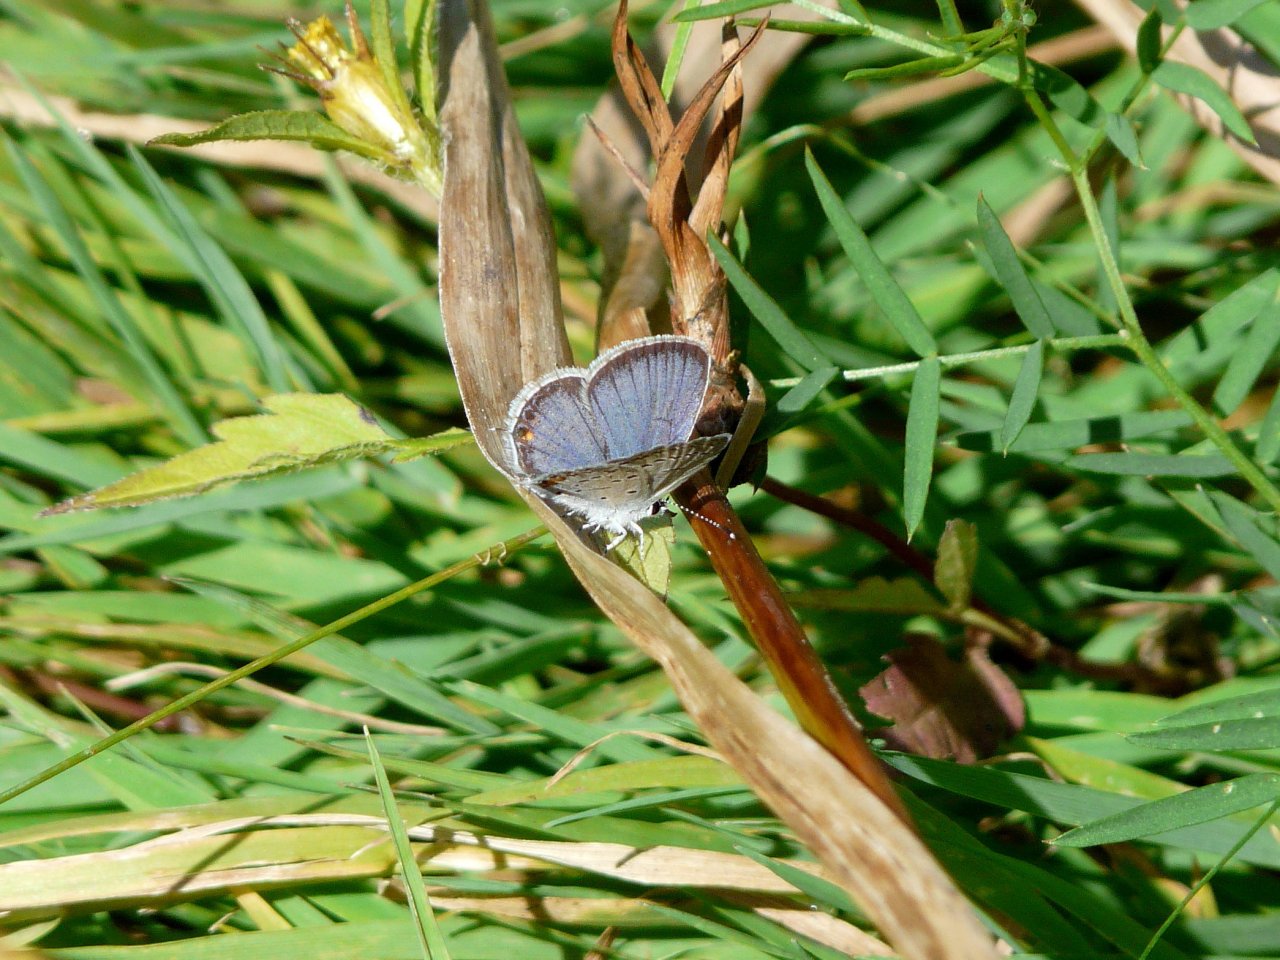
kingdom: Animalia
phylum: Arthropoda
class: Insecta
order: Lepidoptera
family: Lycaenidae
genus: Elkalyce
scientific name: Elkalyce comyntas
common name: Eastern Tailed-Blue
